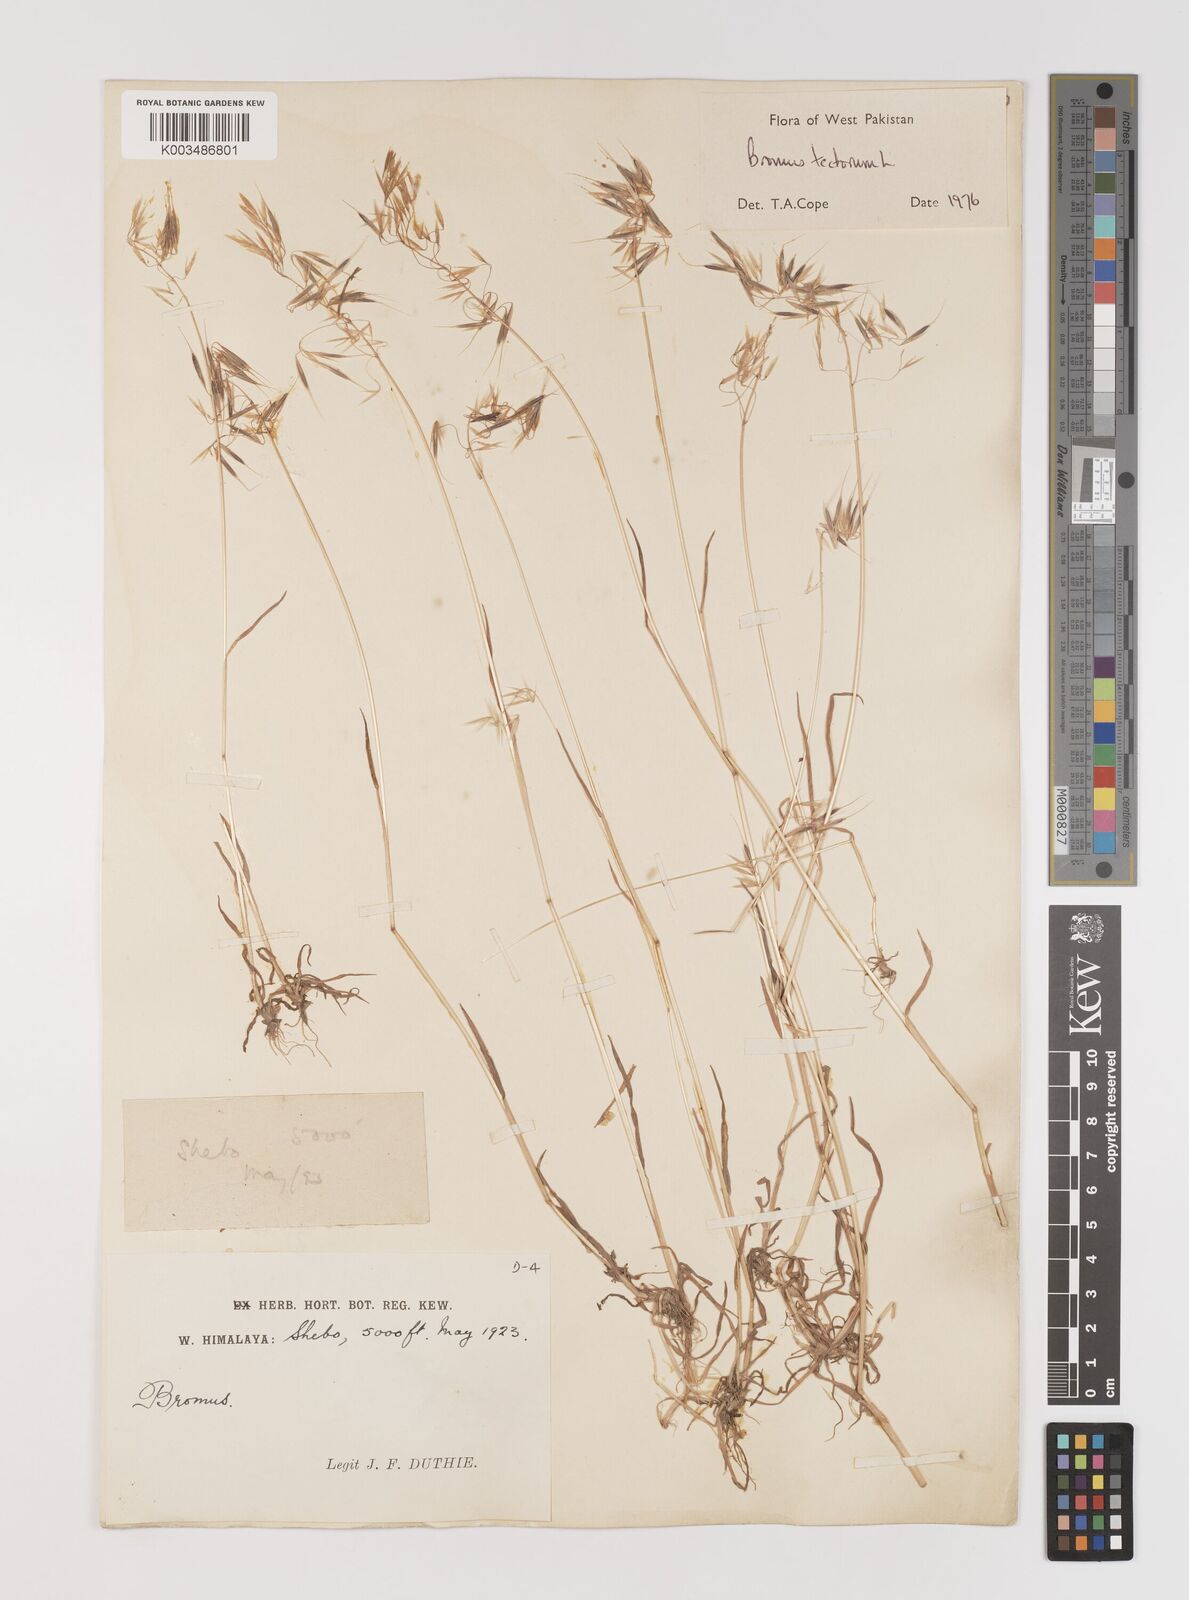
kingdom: Plantae
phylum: Tracheophyta
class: Liliopsida
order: Poales
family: Poaceae
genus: Bromus
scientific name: Bromus tectorum
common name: Cheatgrass
